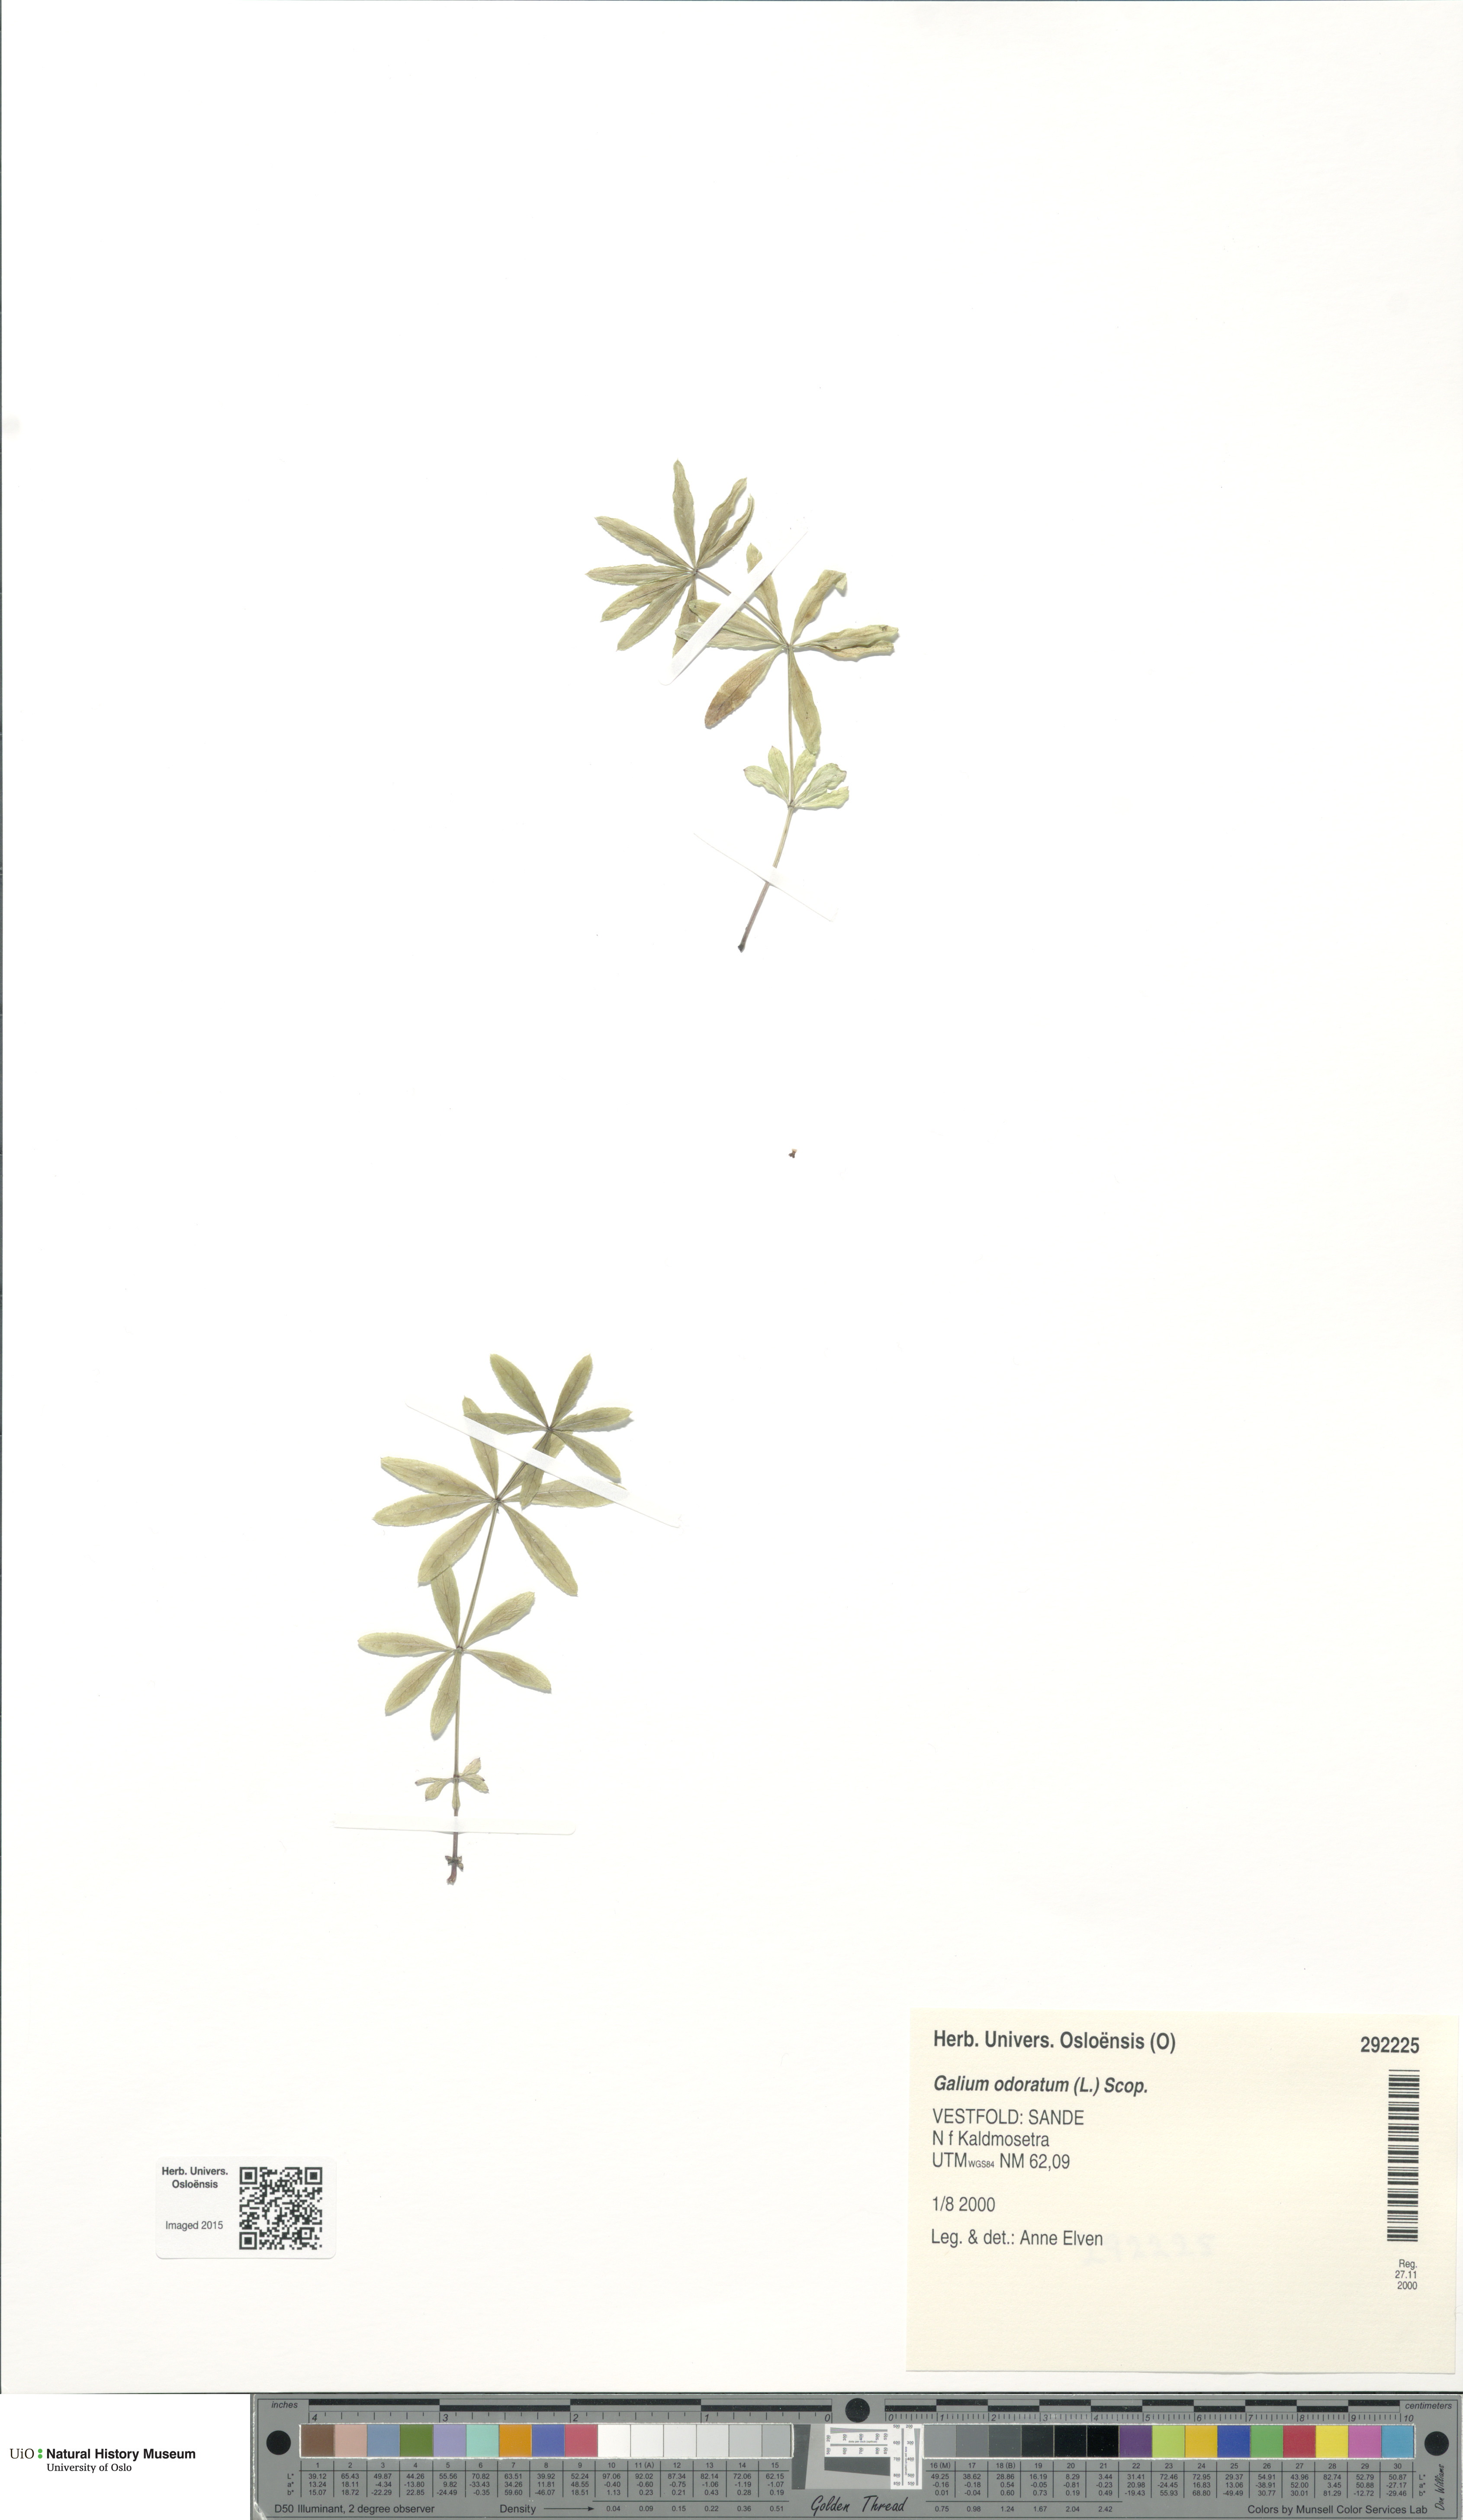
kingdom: Plantae
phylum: Tracheophyta
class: Magnoliopsida
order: Gentianales
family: Rubiaceae
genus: Galium
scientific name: Galium odoratum
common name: Sweet woodruff
